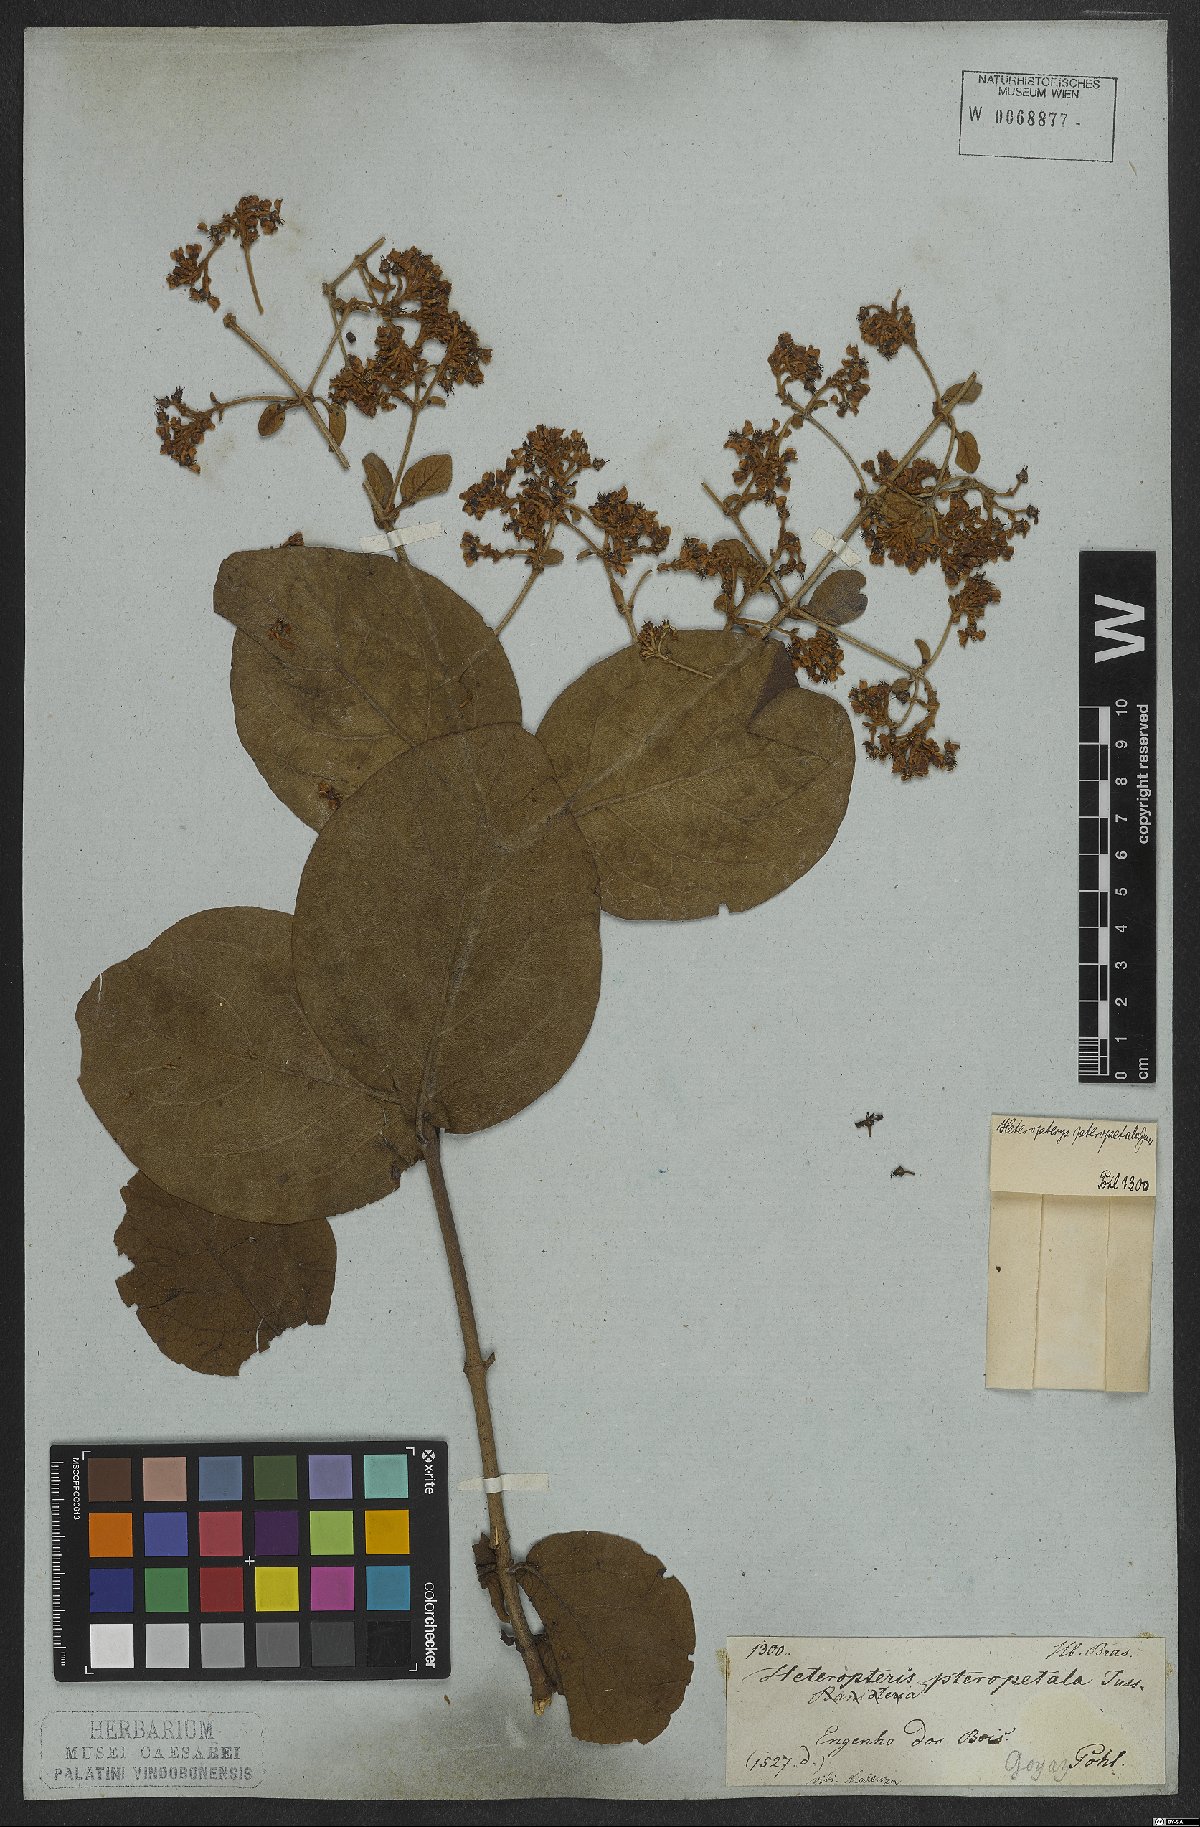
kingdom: Plantae
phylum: Tracheophyta
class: Magnoliopsida
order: Malpighiales
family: Malpighiaceae
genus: Heteropterys
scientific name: Heteropterys pteropetala
